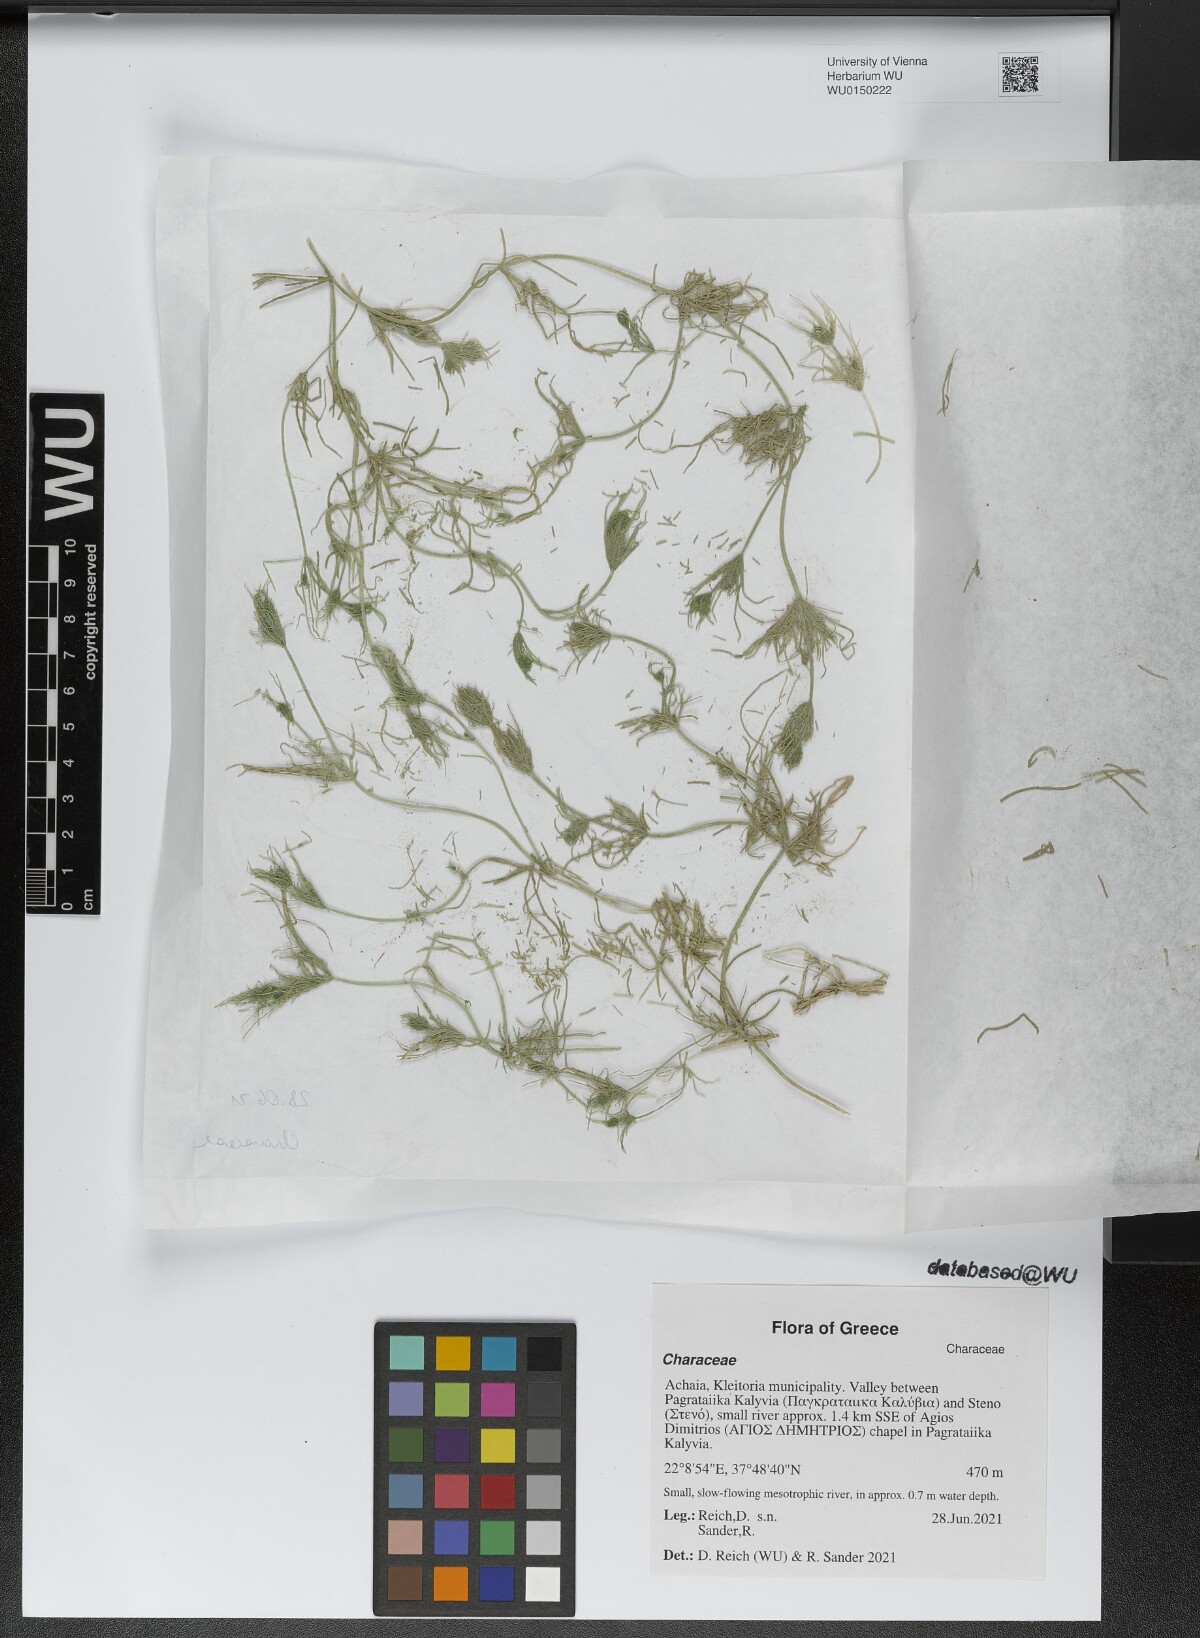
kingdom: Plantae
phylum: Charophyta
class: Charophyceae
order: Charales
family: Characeae
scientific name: Characeae
